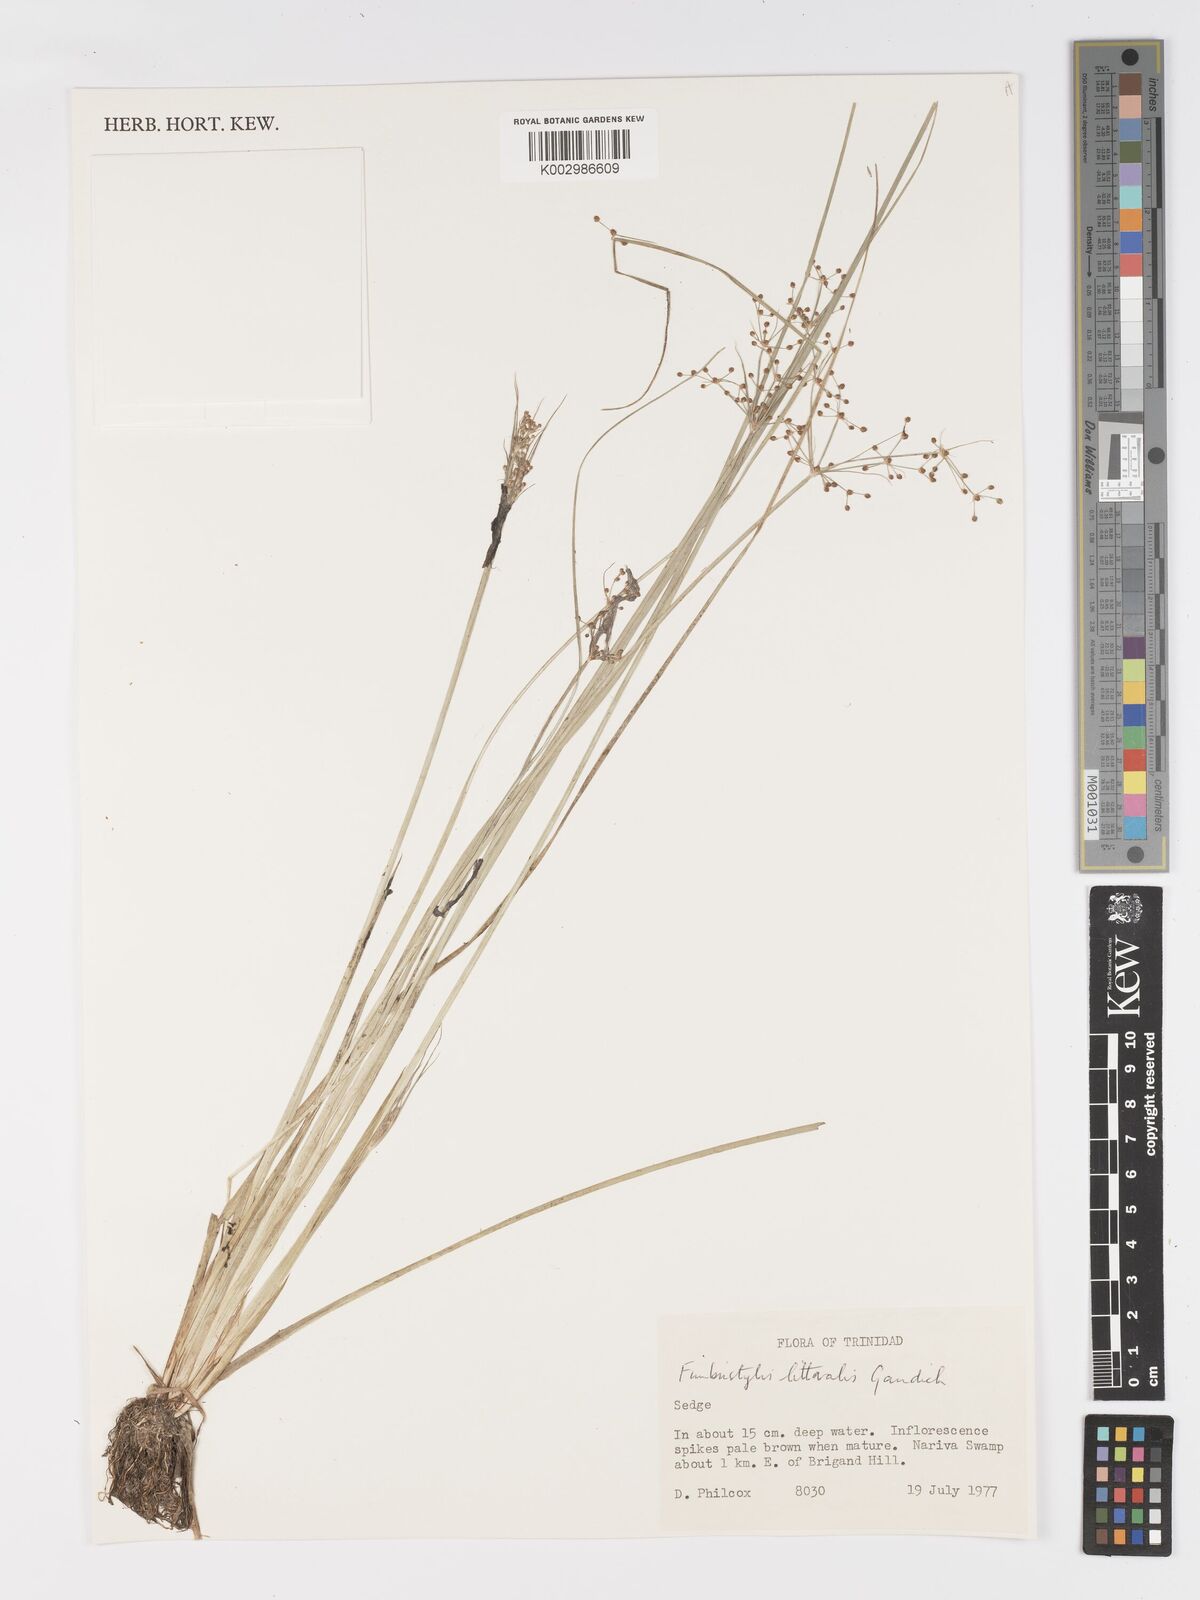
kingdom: Plantae
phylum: Tracheophyta
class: Liliopsida
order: Poales
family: Cyperaceae
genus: Fimbristylis
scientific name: Fimbristylis littoralis
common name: Fimbry
